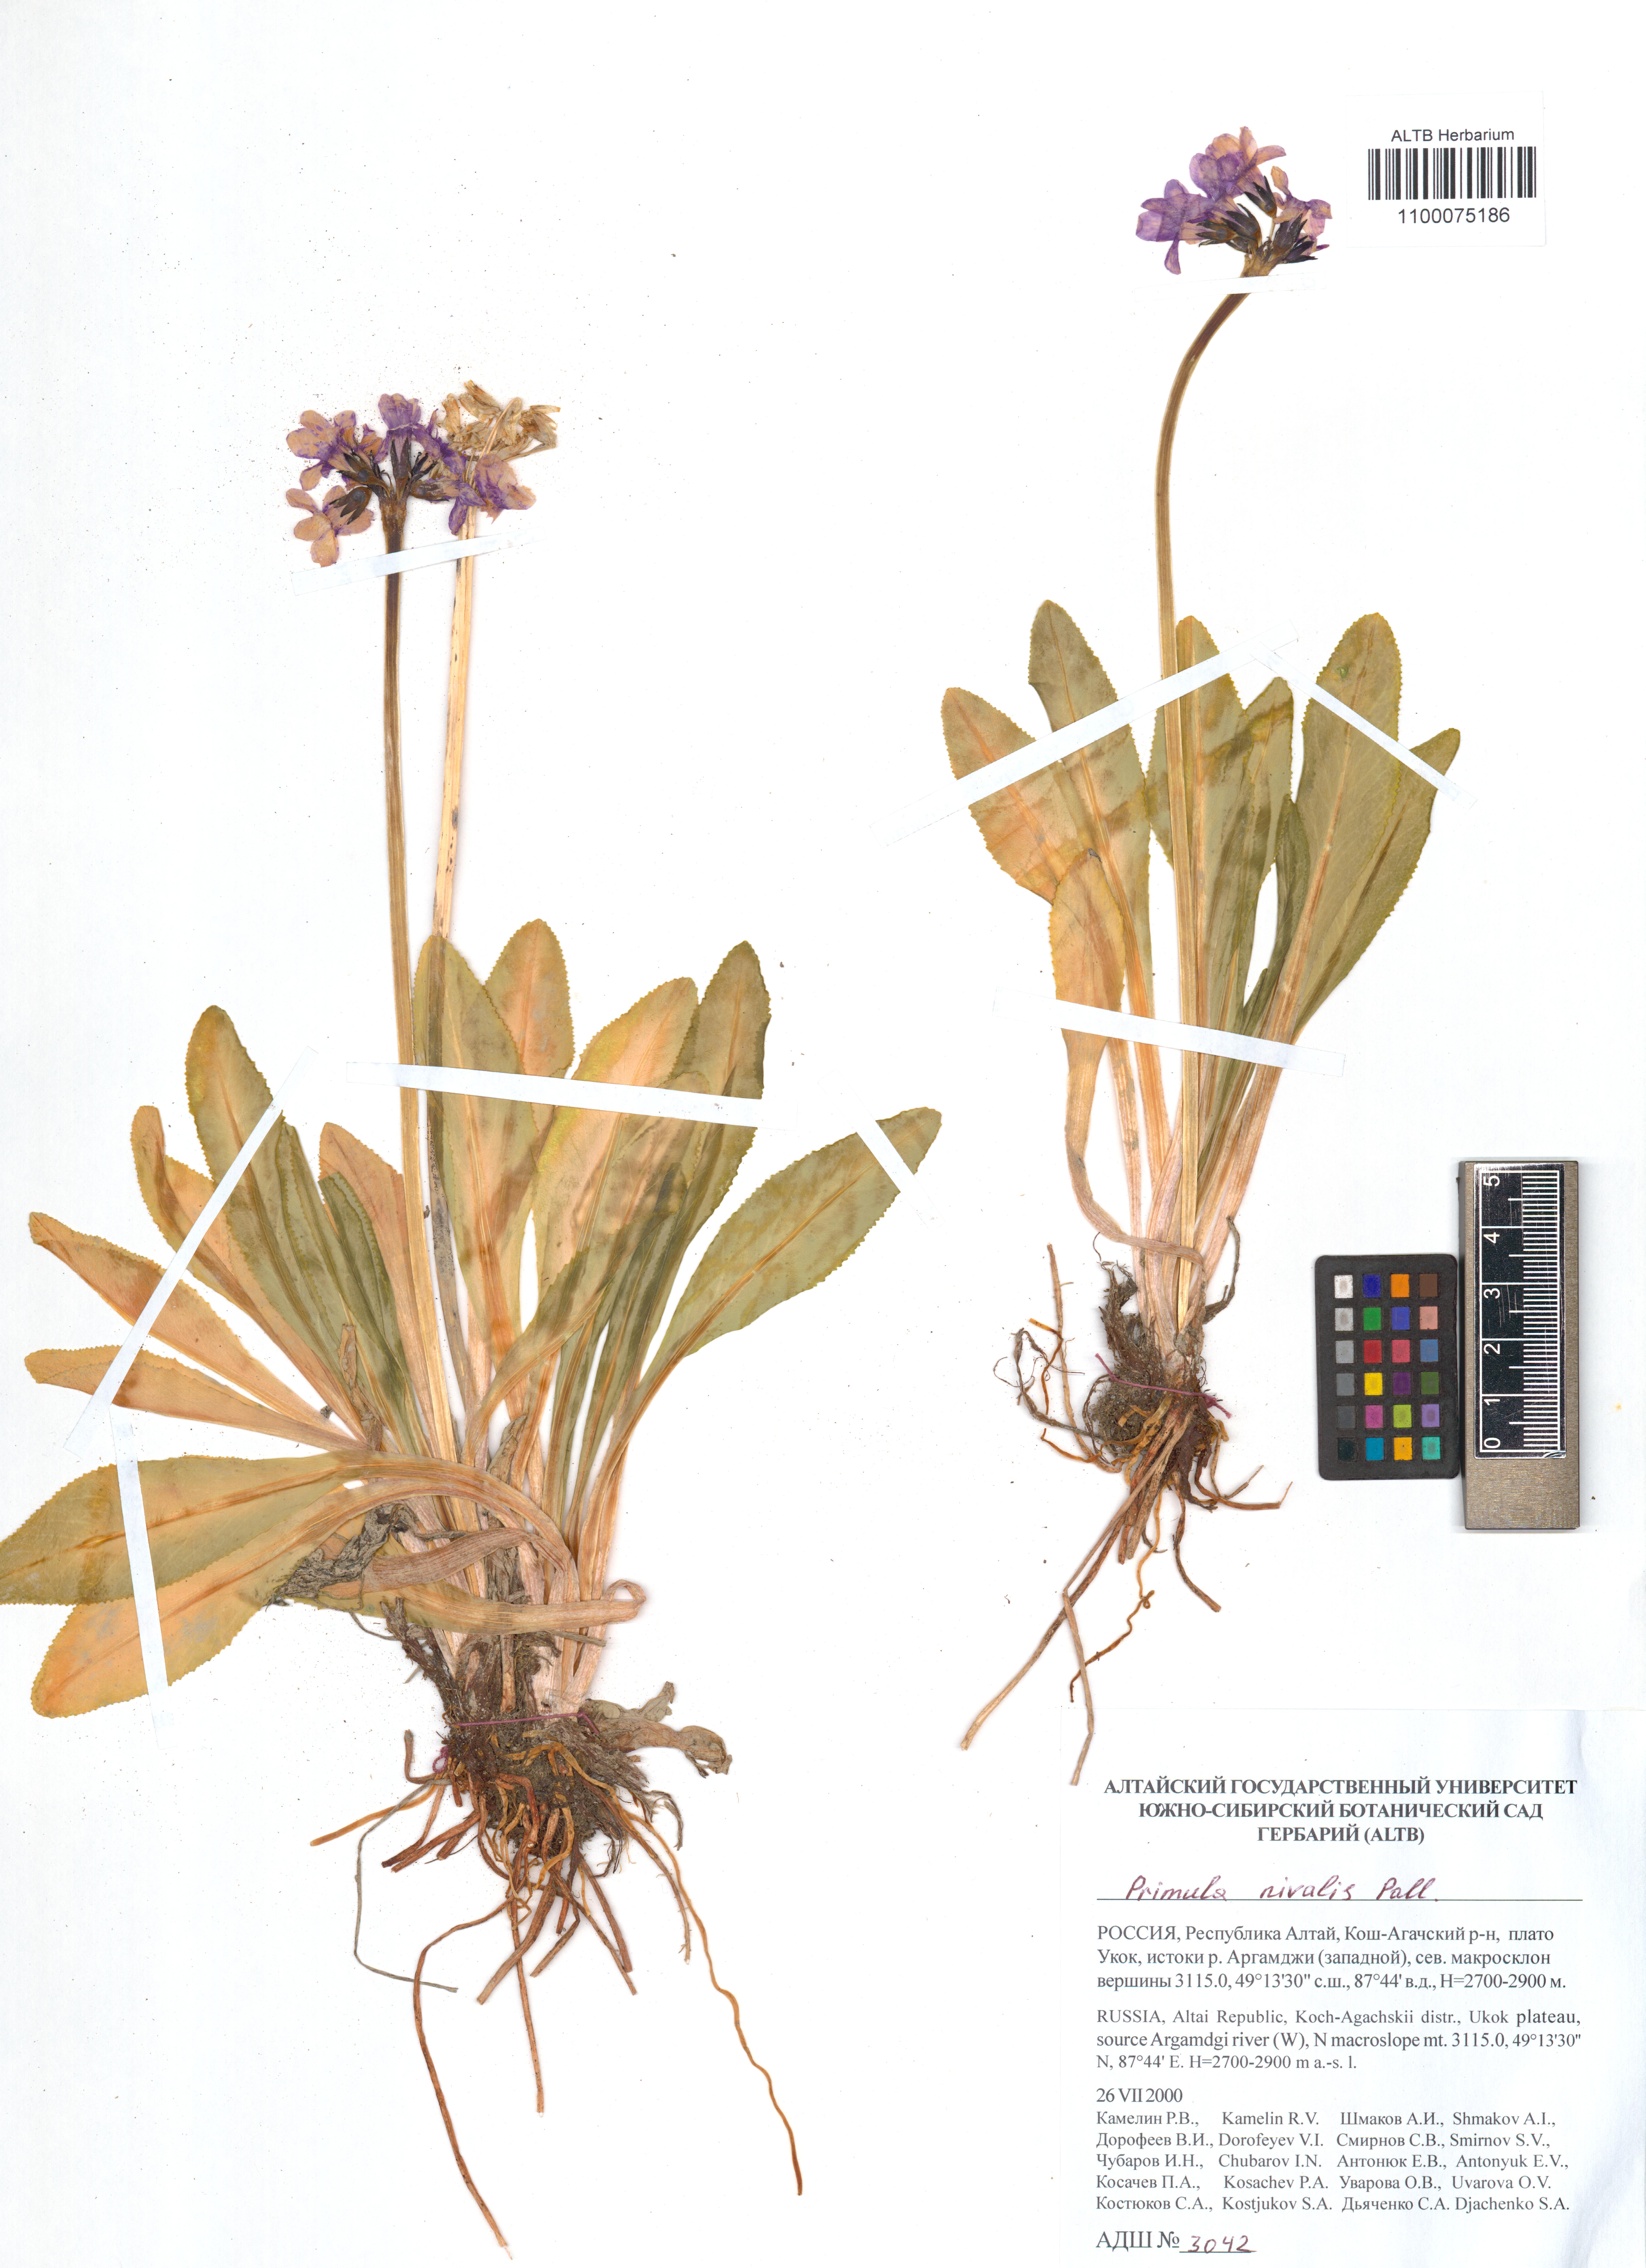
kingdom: Plantae
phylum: Tracheophyta
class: Magnoliopsida
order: Ericales
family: Primulaceae
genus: Primula
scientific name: Primula nivalis
